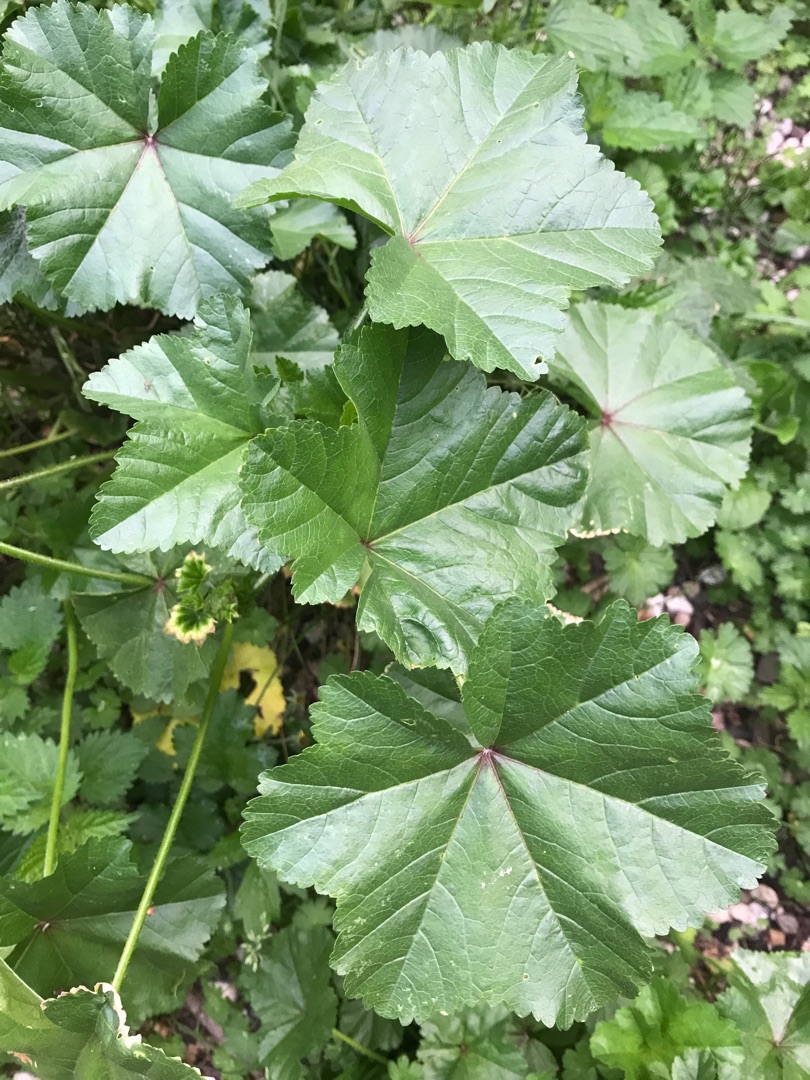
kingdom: Plantae
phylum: Tracheophyta
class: Magnoliopsida
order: Malvales
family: Malvaceae
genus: Malva
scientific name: Malva sylvestris
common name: Almindelig katost
